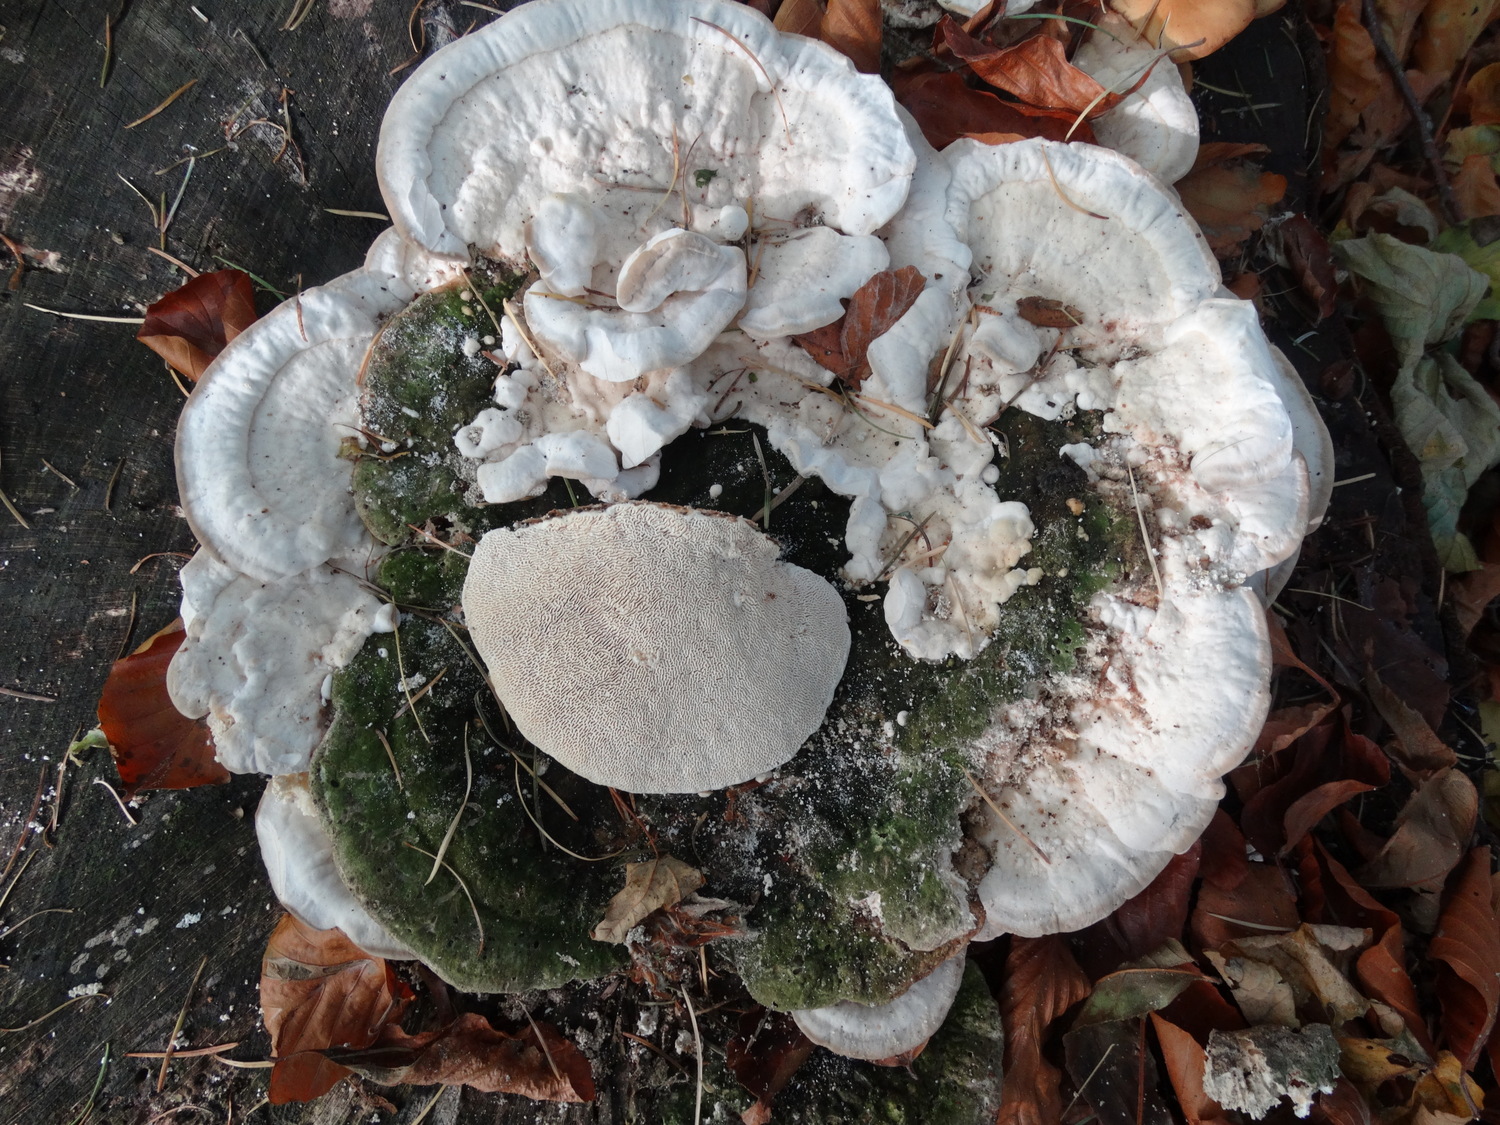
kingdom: Fungi
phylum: Basidiomycota
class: Agaricomycetes
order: Polyporales
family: Polyporaceae
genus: Trametes
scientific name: Trametes gibbosa
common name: puklet læderporesvamp
